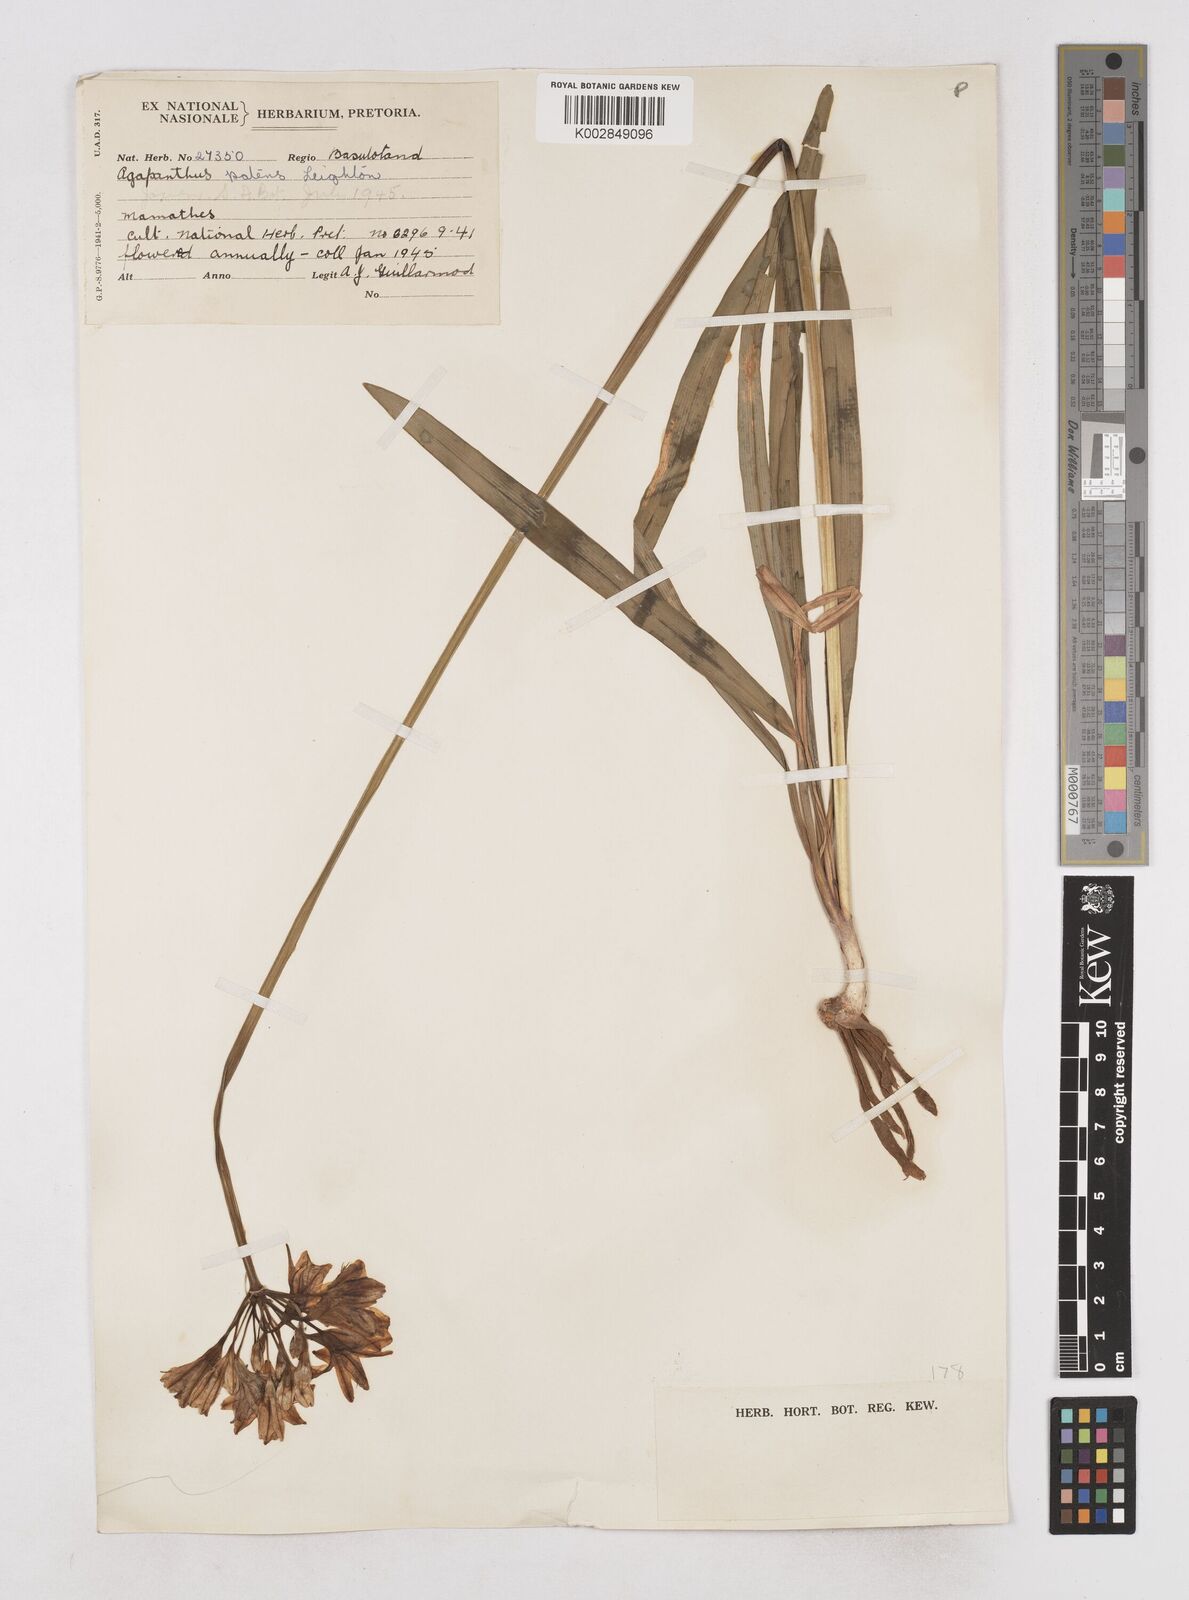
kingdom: Plantae
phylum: Tracheophyta
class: Liliopsida
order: Asparagales
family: Amaryllidaceae
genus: Agapanthus
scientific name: Agapanthus campanulatus
